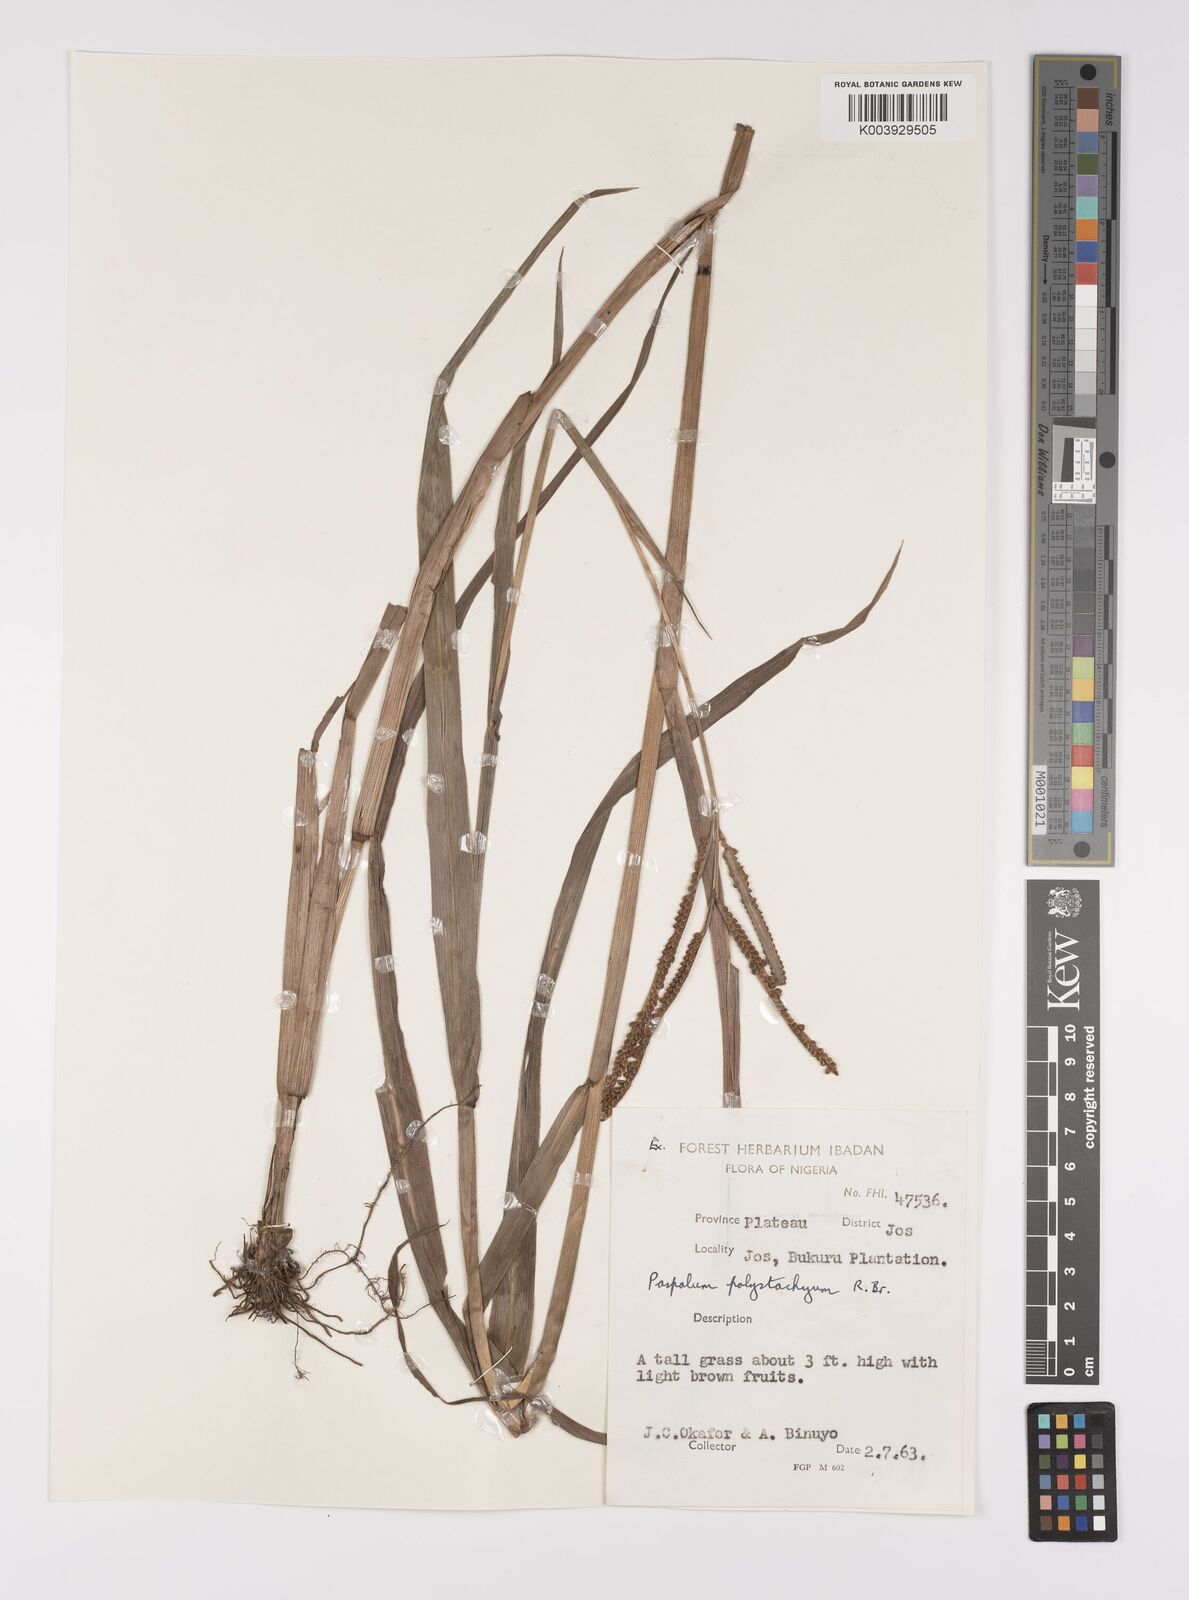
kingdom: Plantae
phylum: Tracheophyta
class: Liliopsida
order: Poales
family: Poaceae
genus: Paspalum
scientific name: Paspalum scrobiculatum
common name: Kodo millet
